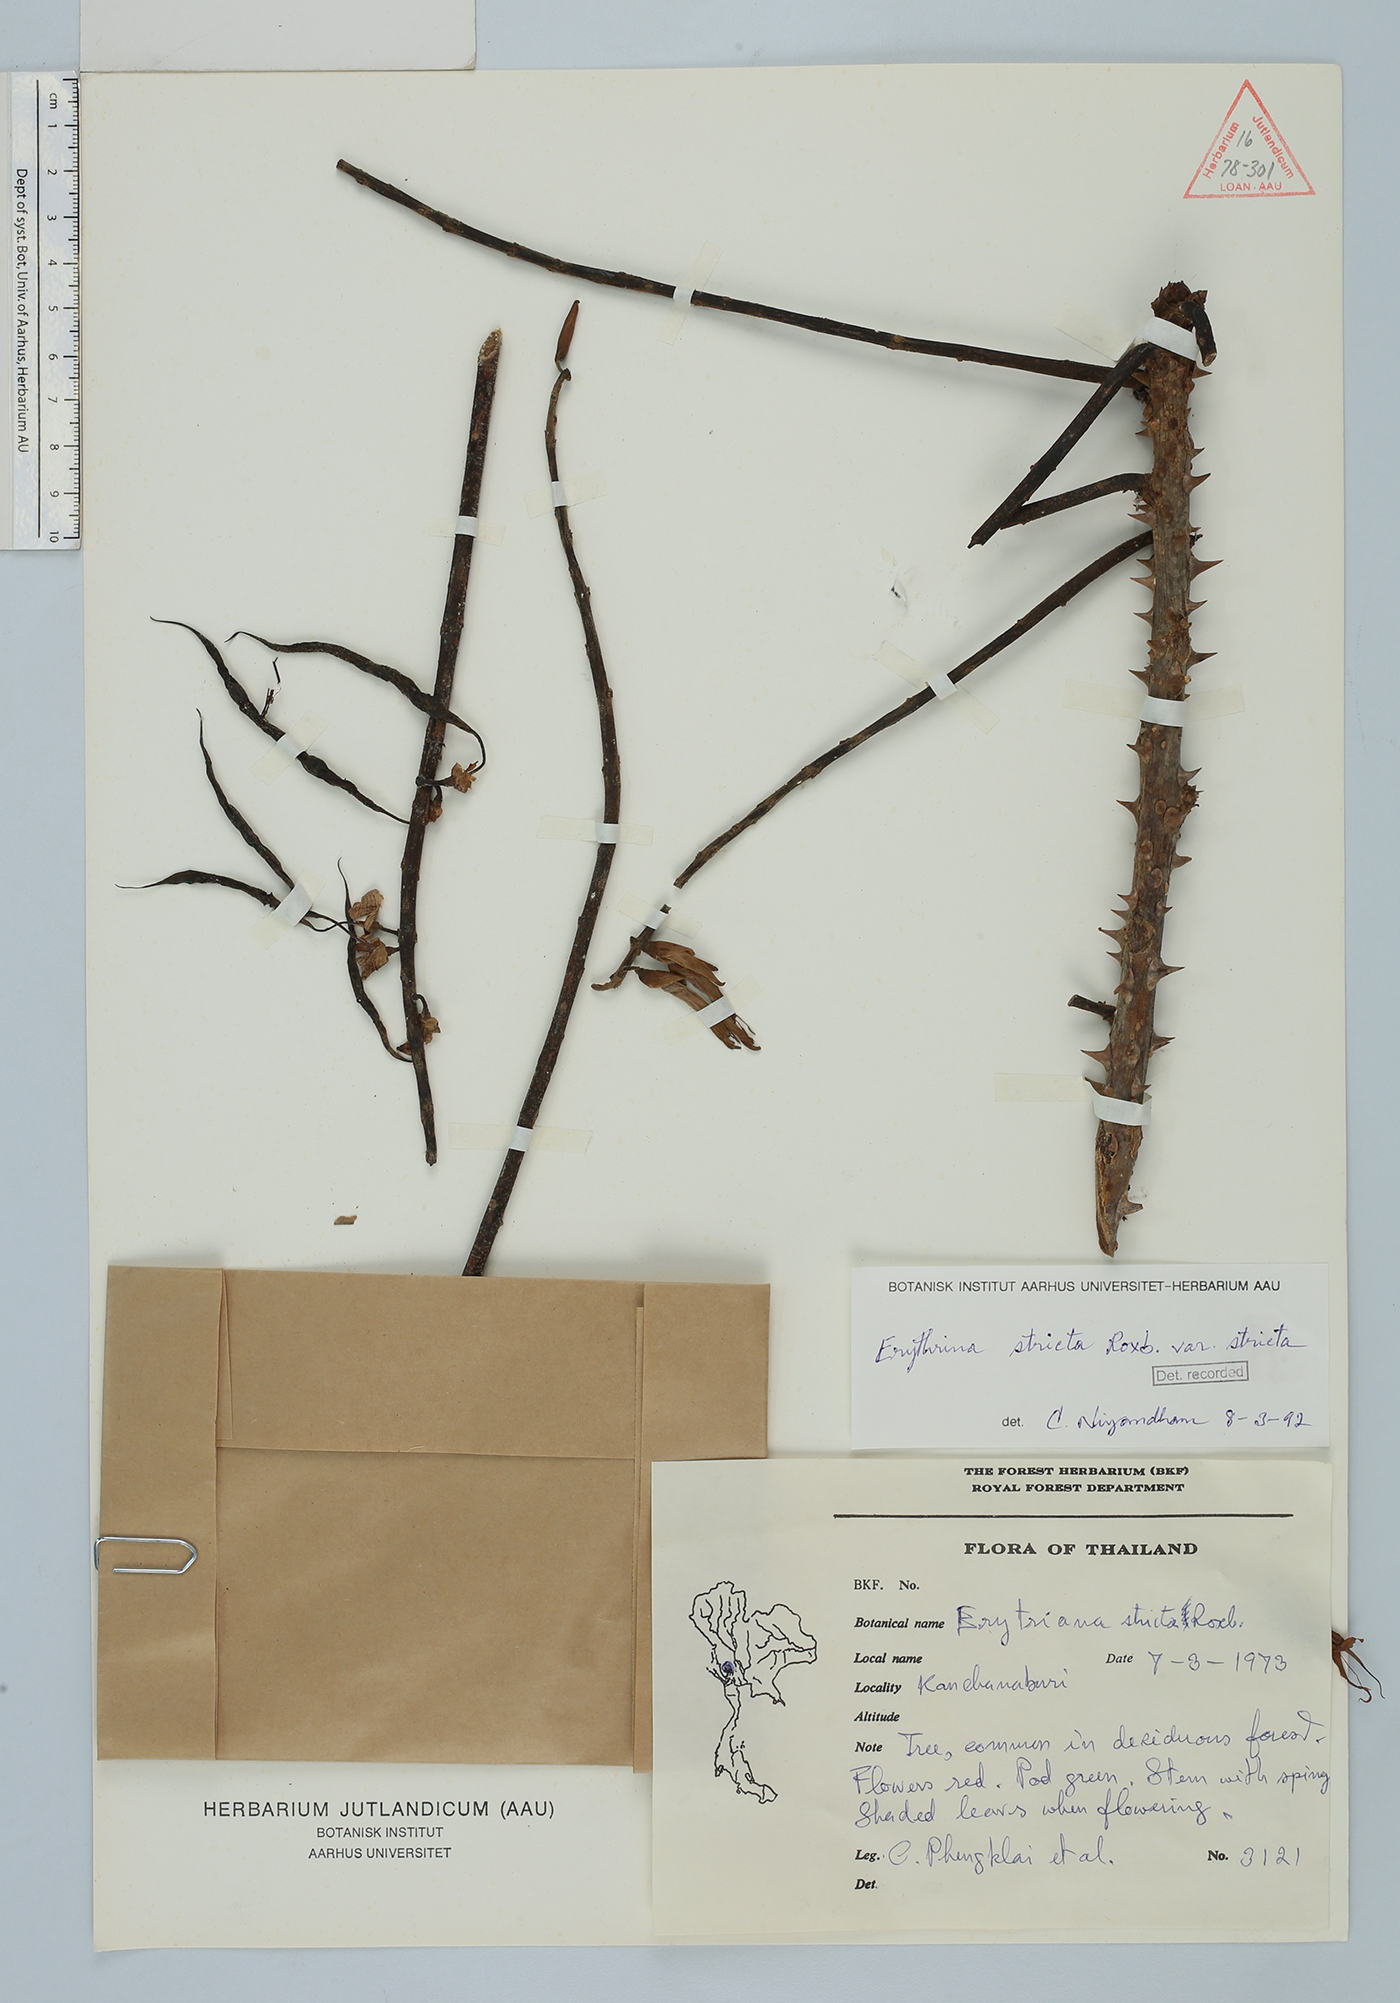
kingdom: Plantae
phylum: Tracheophyta
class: Magnoliopsida
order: Fabales
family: Fabaceae
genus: Erythrina
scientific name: Erythrina stricta
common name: Coraltree
